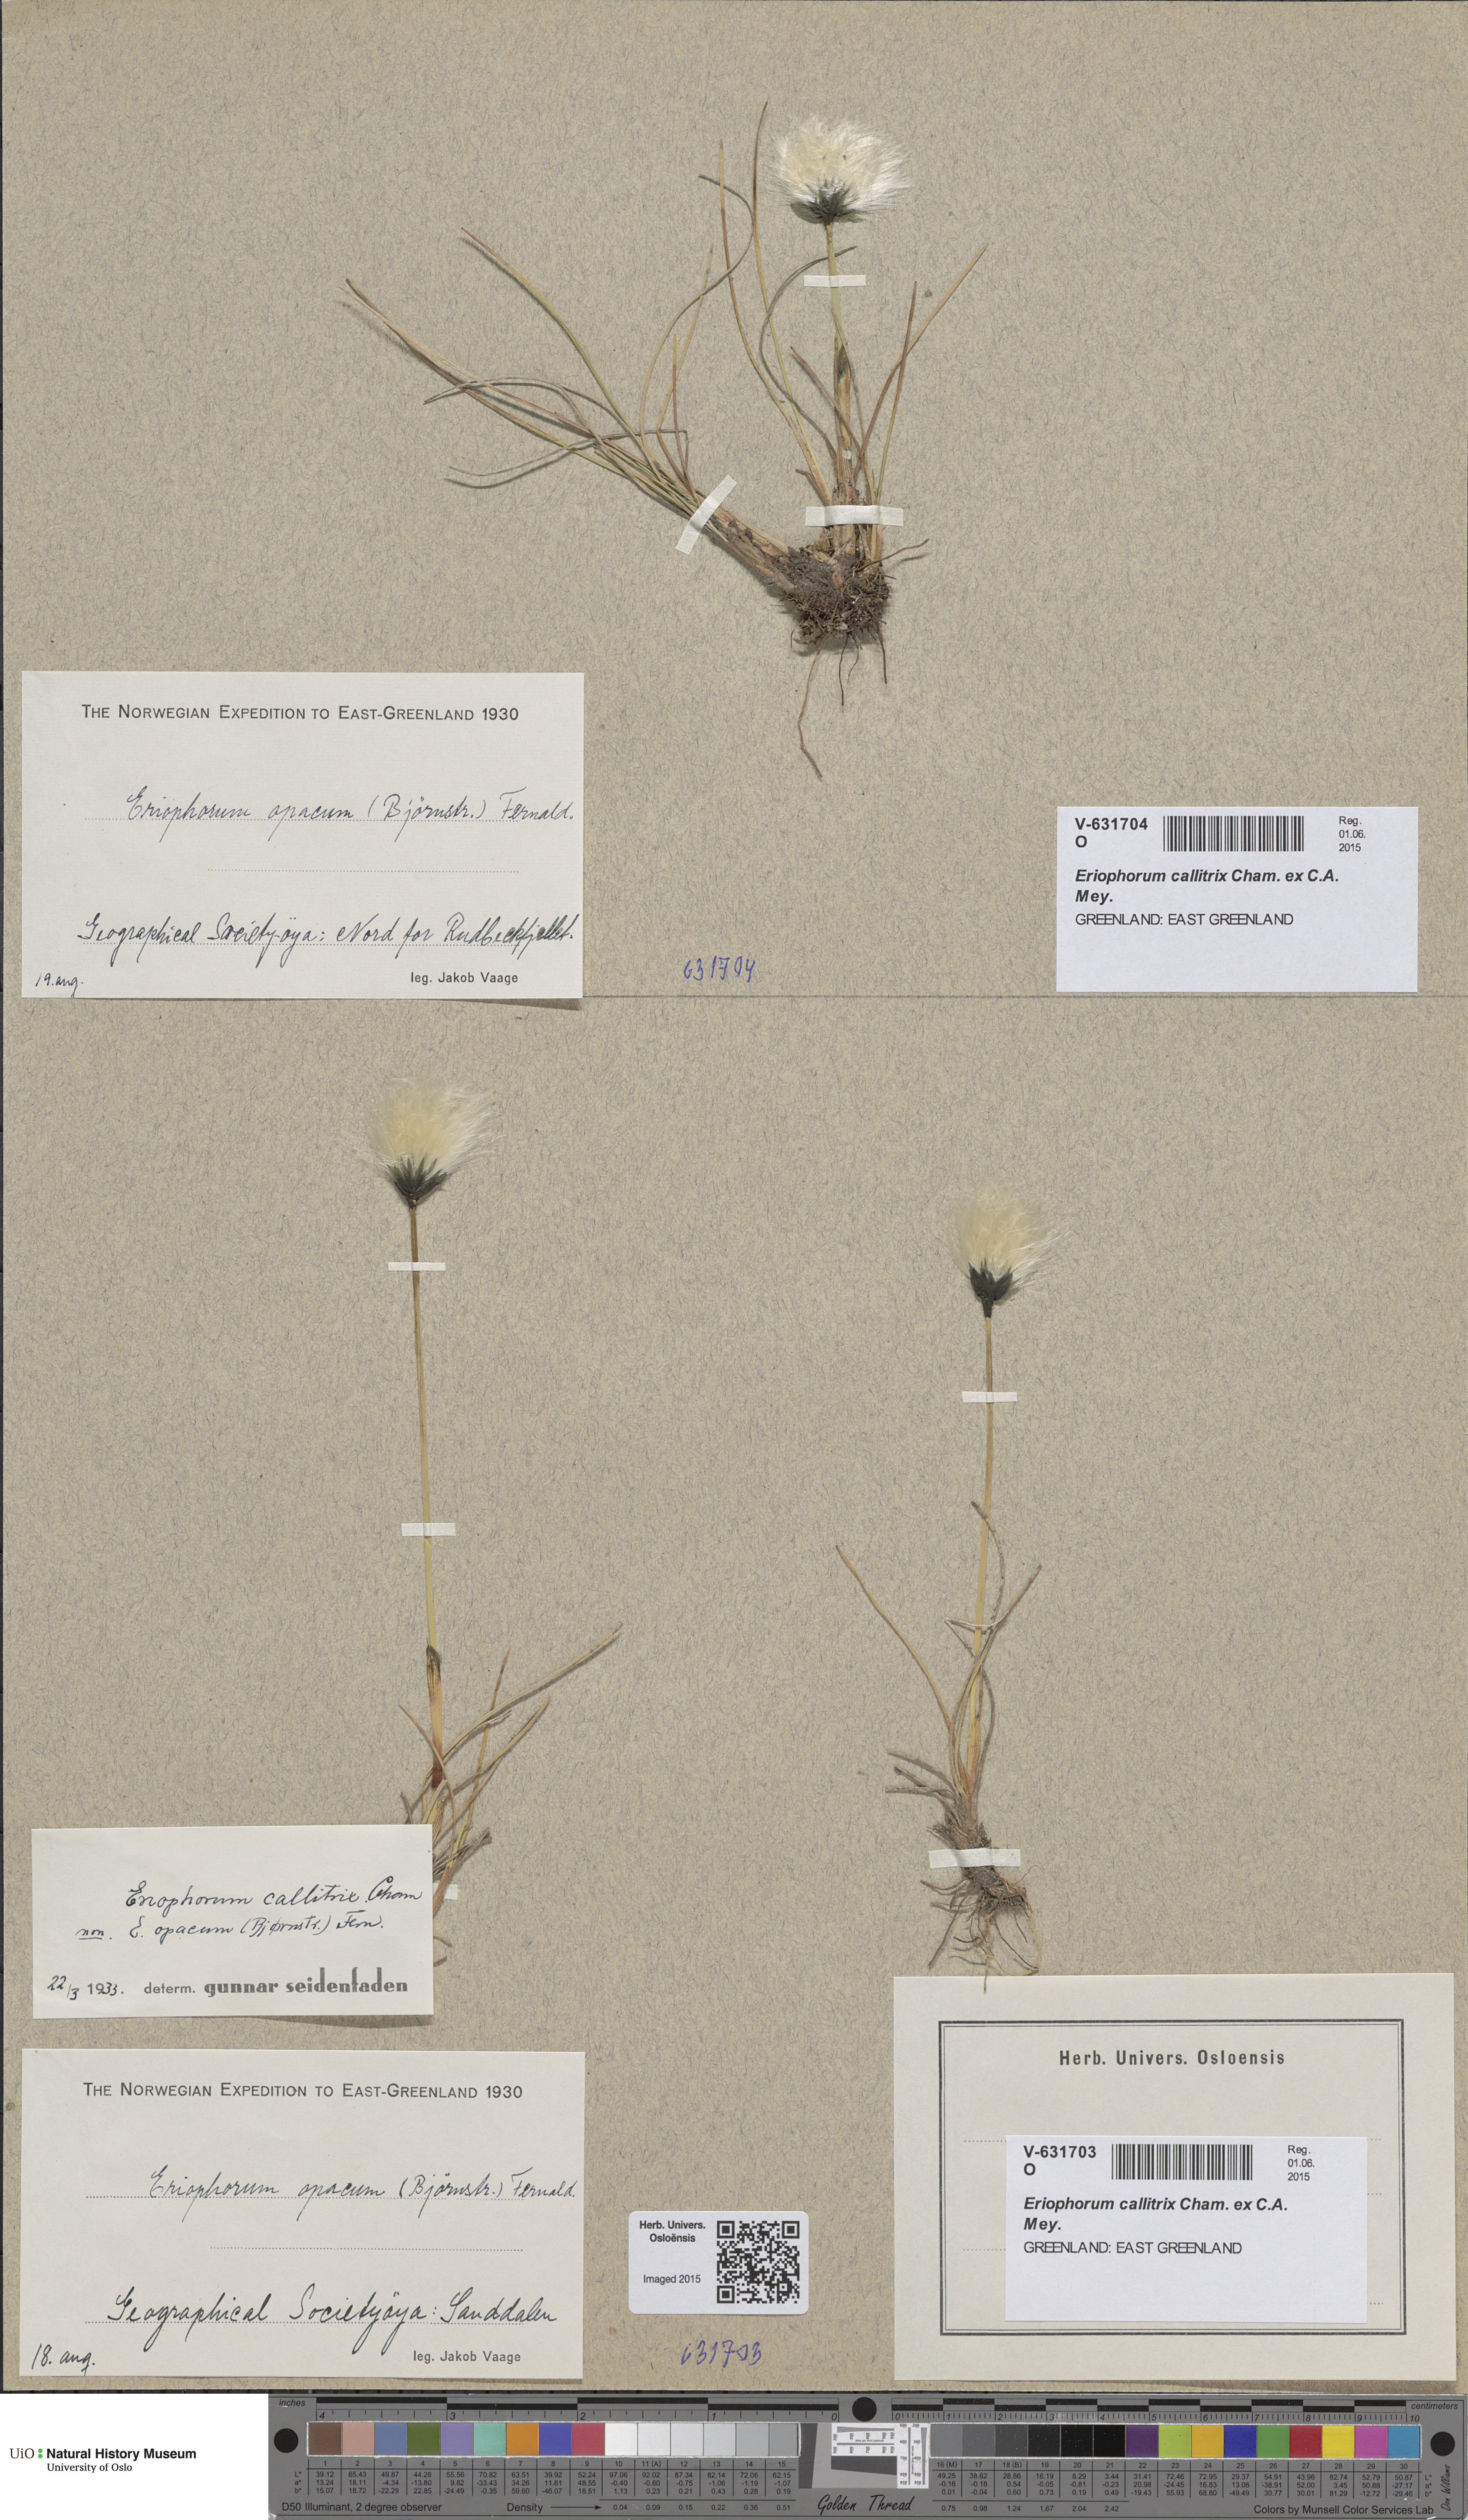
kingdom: Plantae
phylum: Tracheophyta
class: Liliopsida
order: Poales
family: Cyperaceae
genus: Eriophorum
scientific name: Eriophorum callitrix
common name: Arctic cottongrass
